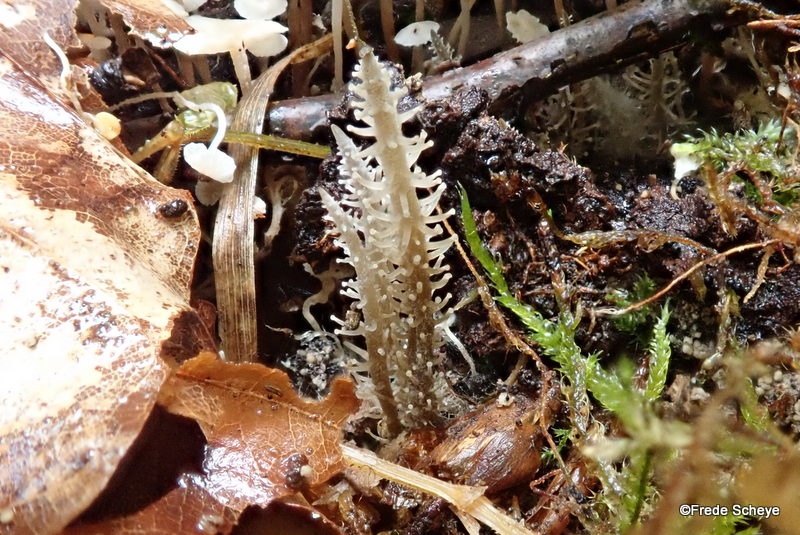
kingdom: Fungi
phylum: Basidiomycota
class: Agaricomycetes
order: Agaricales
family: Tricholomataceae
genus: Dendrocollybia
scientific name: Dendrocollybia racemosa
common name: grenet lighat
